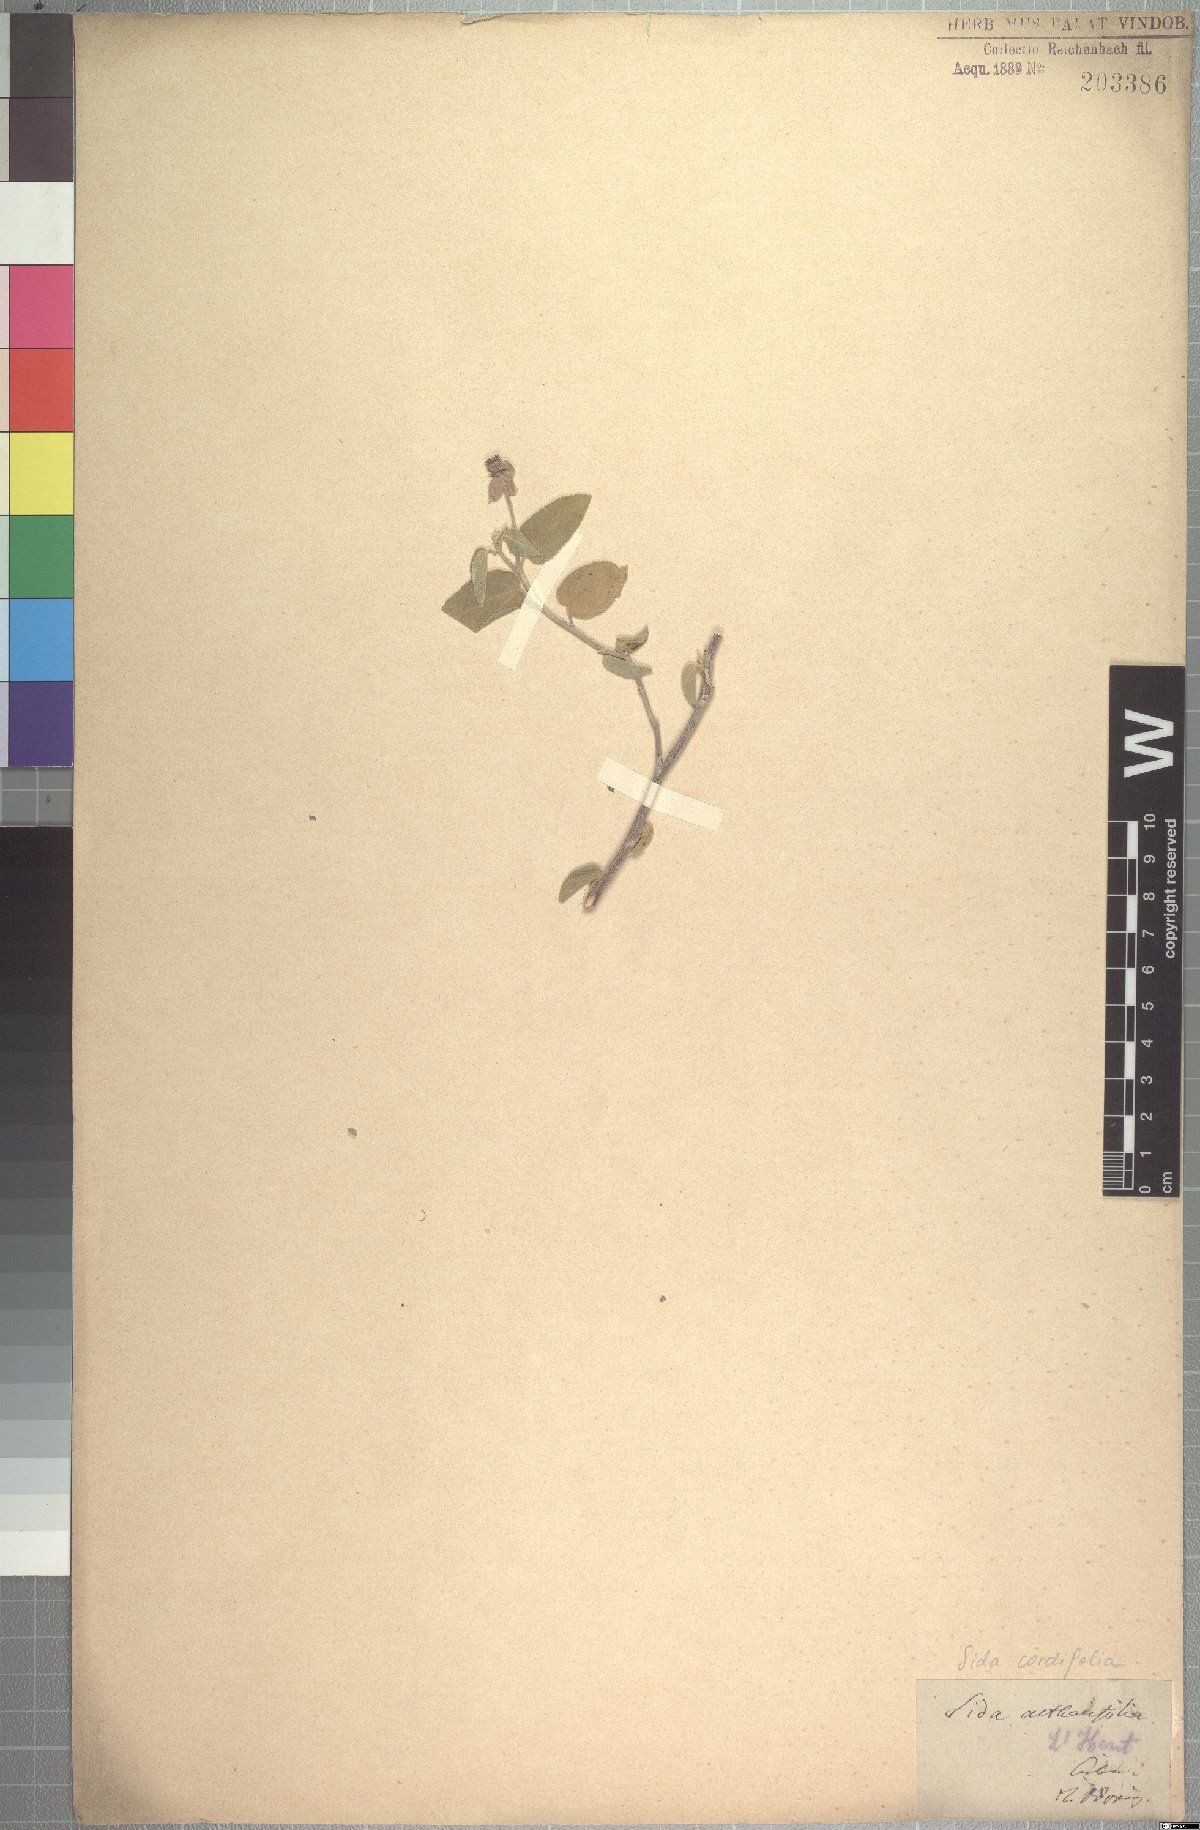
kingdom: Plantae
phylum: Tracheophyta
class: Magnoliopsida
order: Malvales
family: Malvaceae
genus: Sida
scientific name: Sida cordifolia
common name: Ilima
